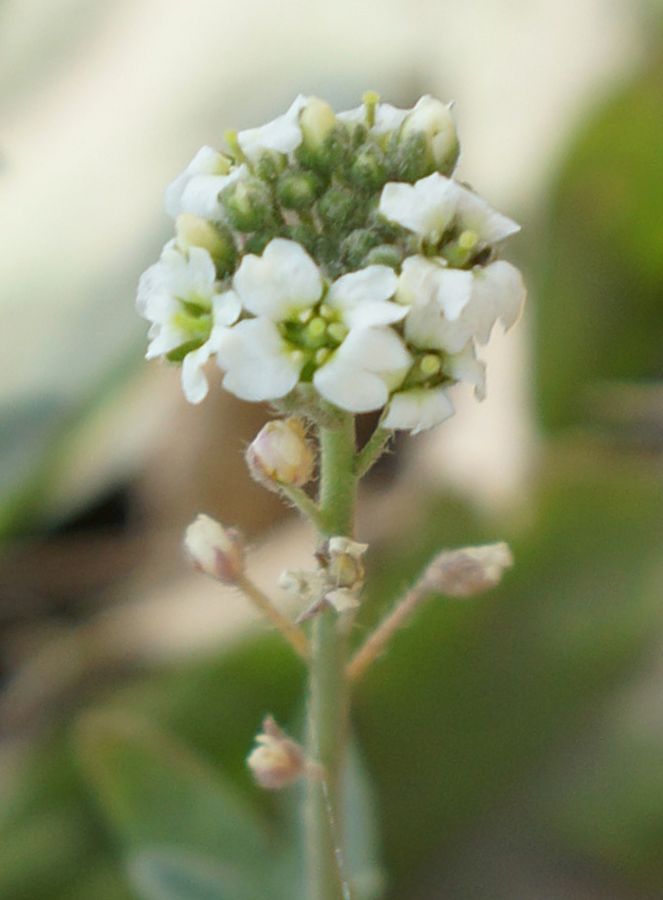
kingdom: Plantae
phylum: Tracheophyta
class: Magnoliopsida
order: Brassicales
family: Brassicaceae
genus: Berteroa
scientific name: Berteroa incana
